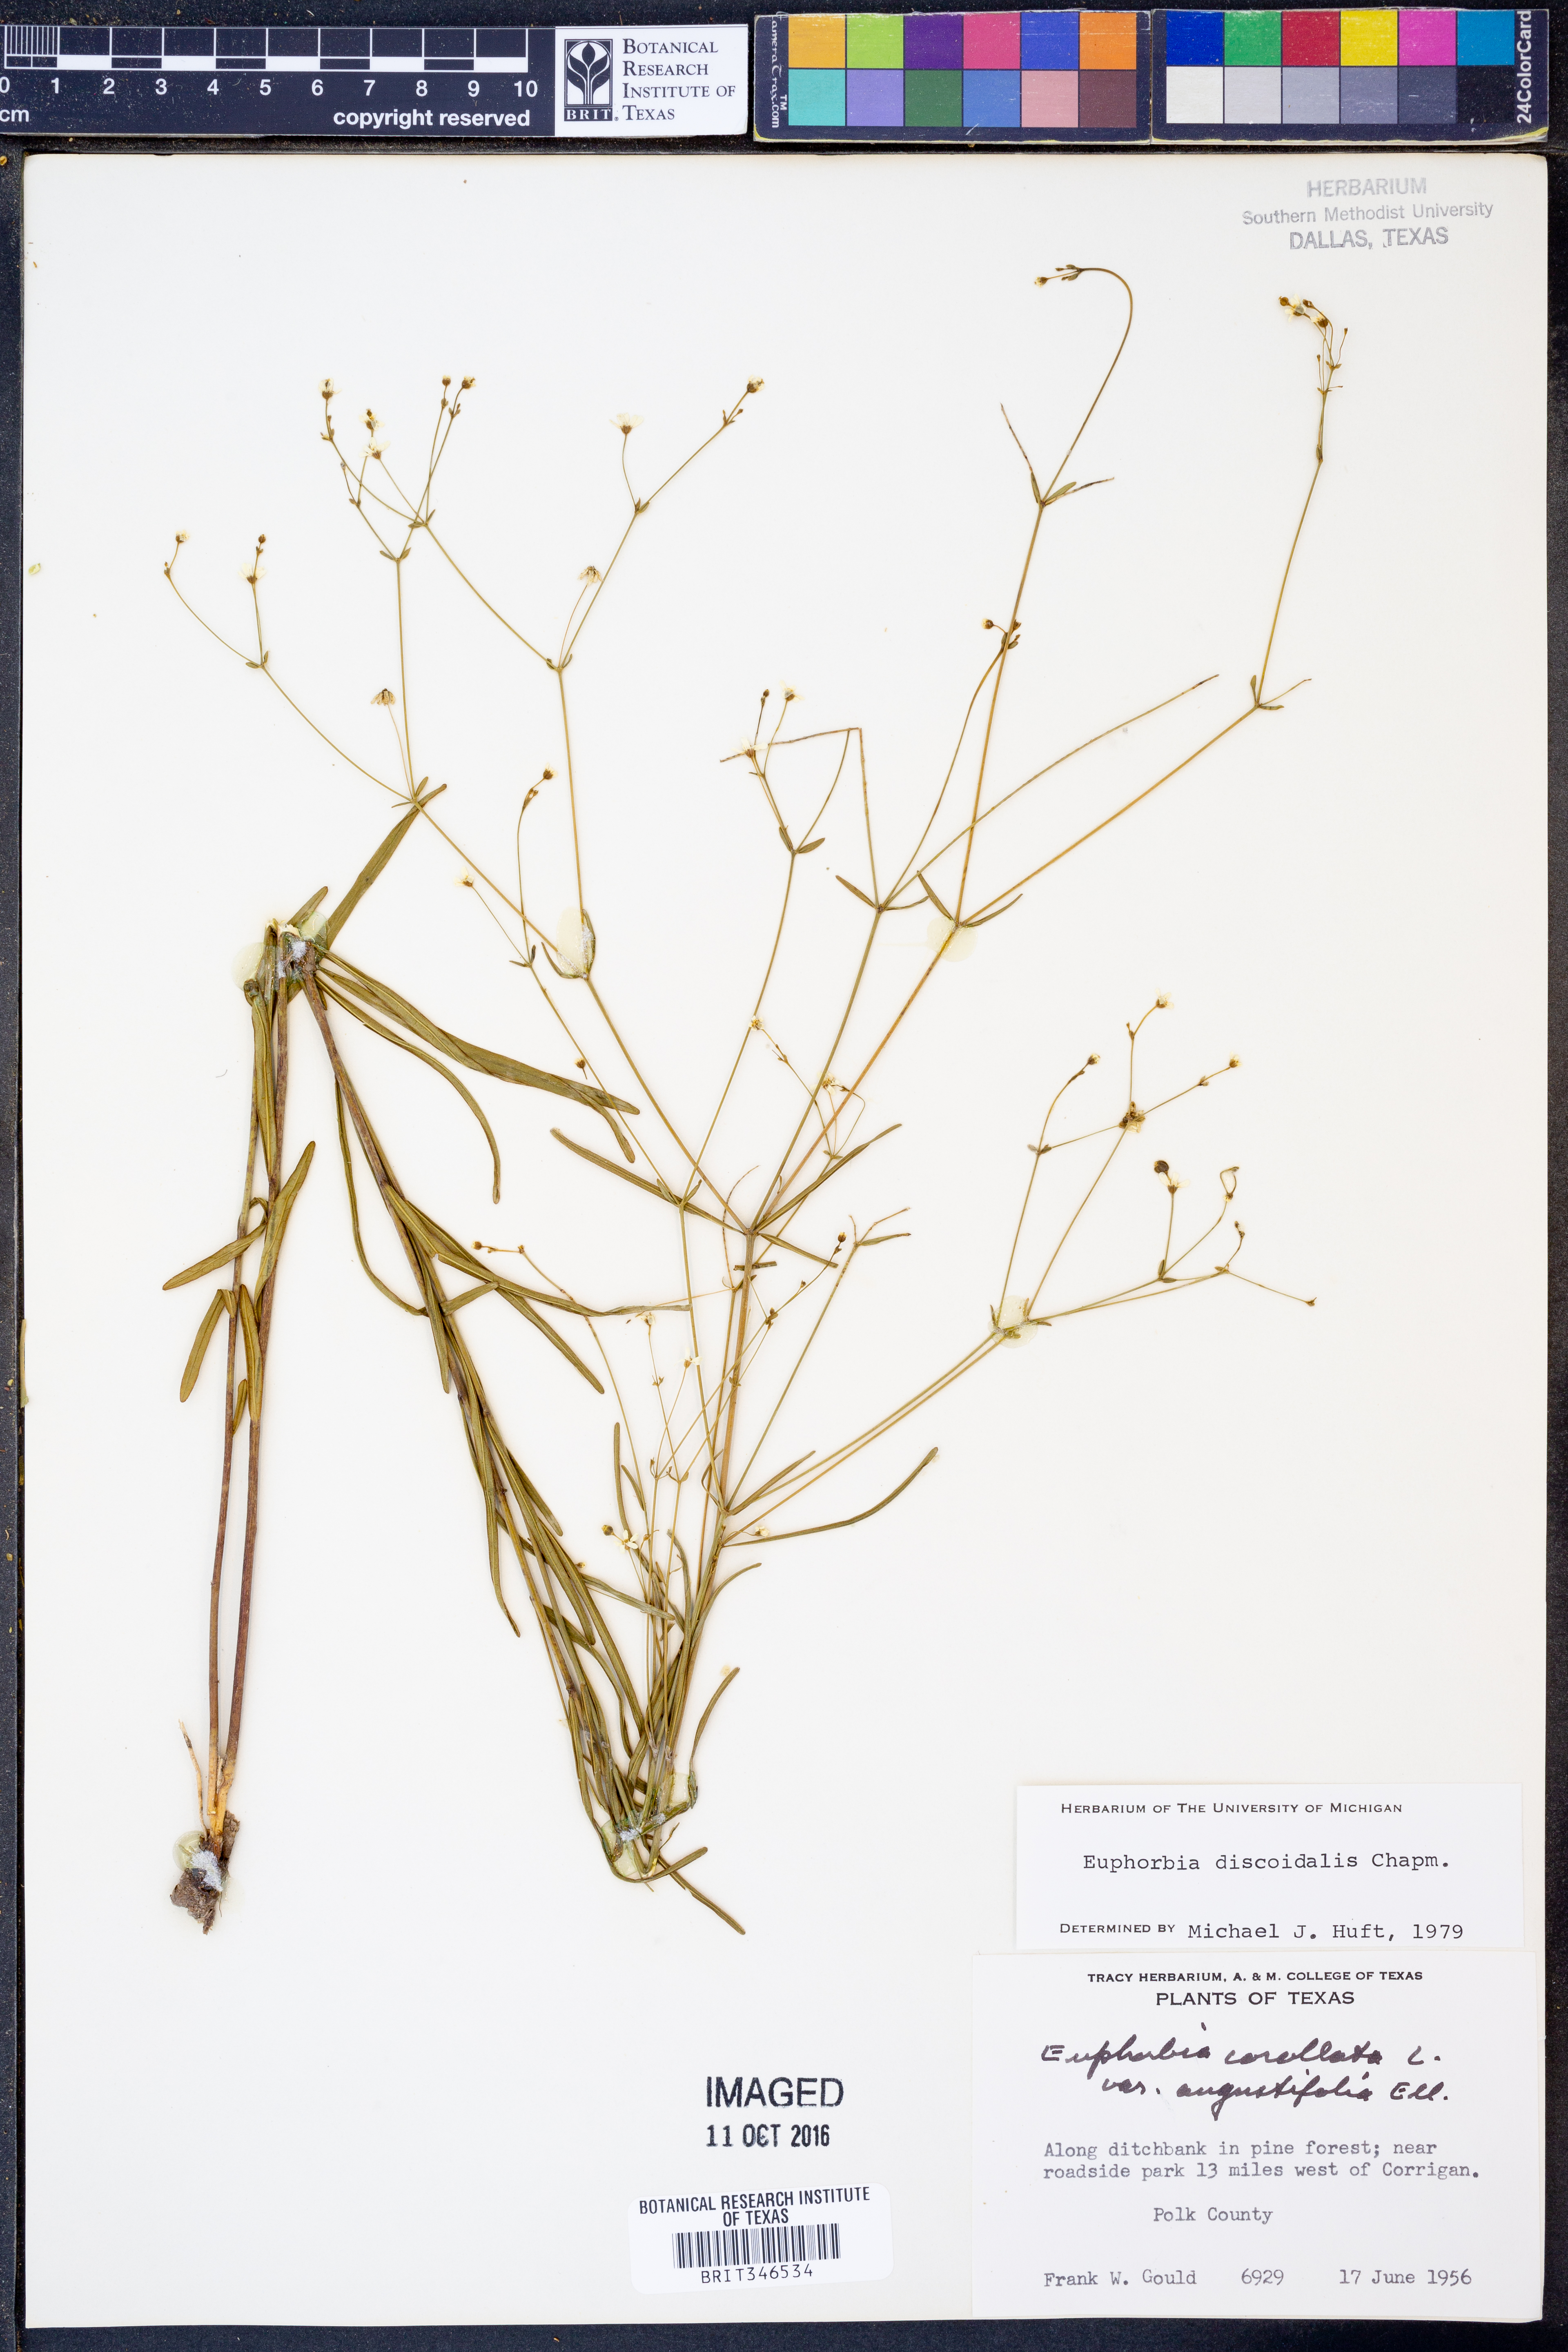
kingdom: Plantae
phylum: Tracheophyta
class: Magnoliopsida
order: Malpighiales
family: Euphorbiaceae
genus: Euphorbia
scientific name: Euphorbia discoidalis
